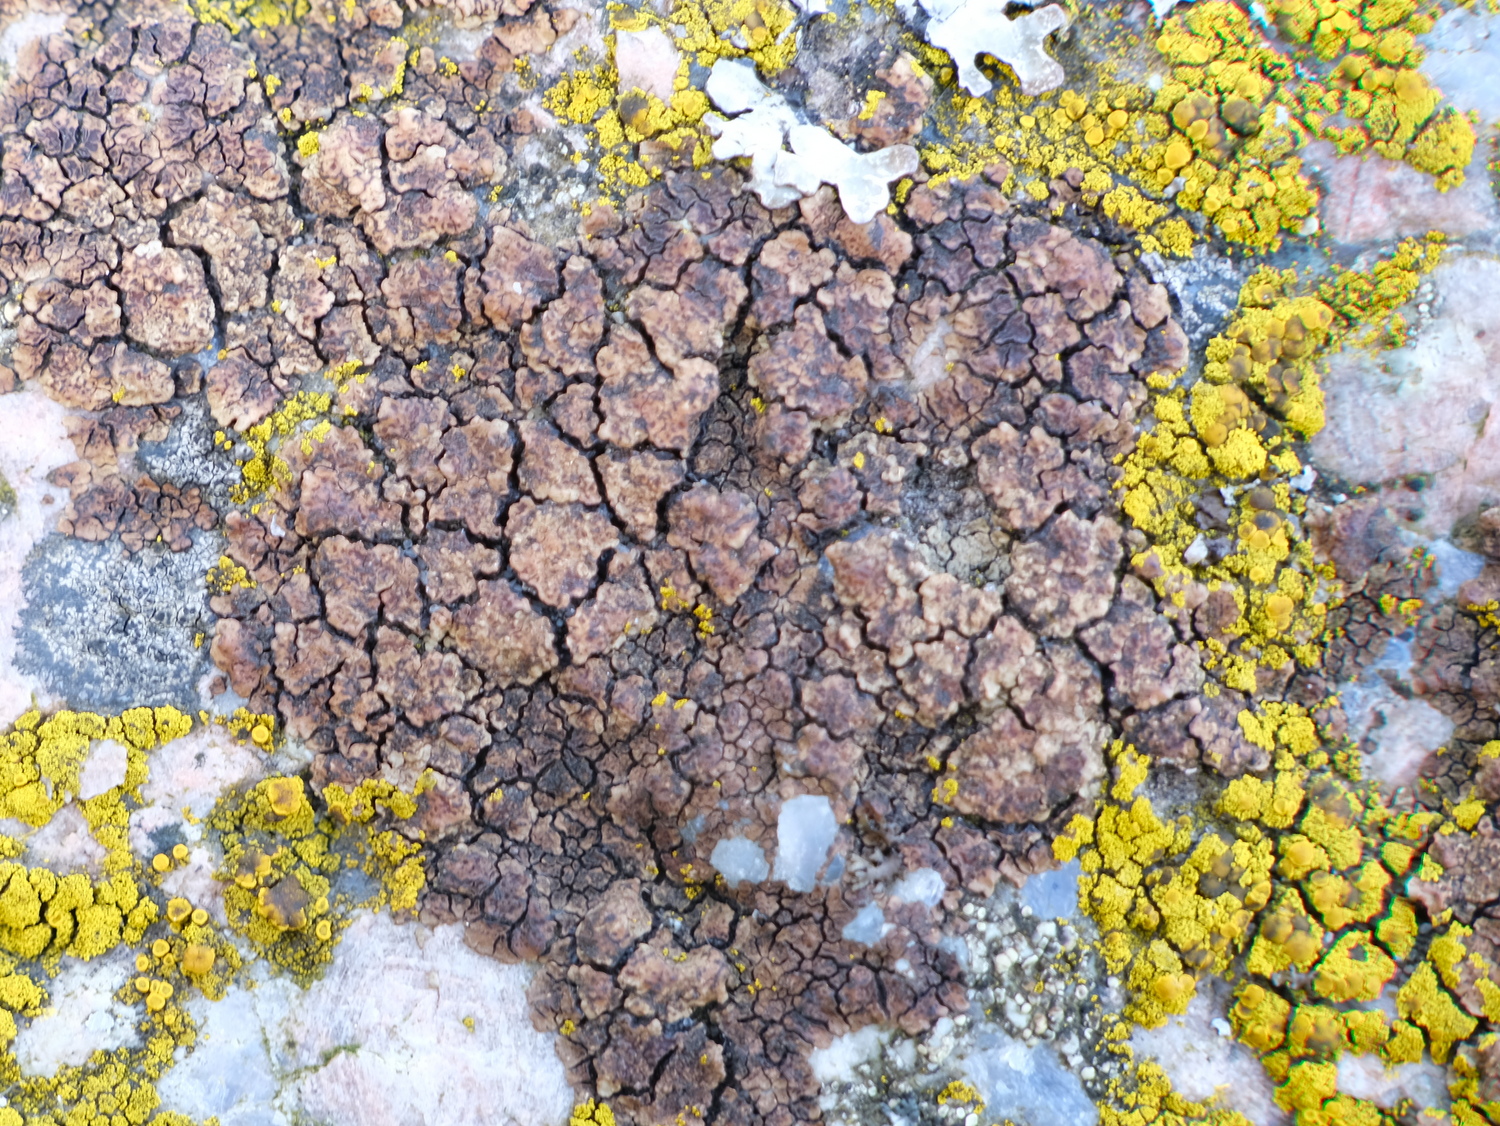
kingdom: Fungi
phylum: Ascomycota
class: Lecanoromycetes
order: Acarosporales
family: Acarosporaceae
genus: Acarospora
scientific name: Acarospora fuscata
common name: brun småsporelav
